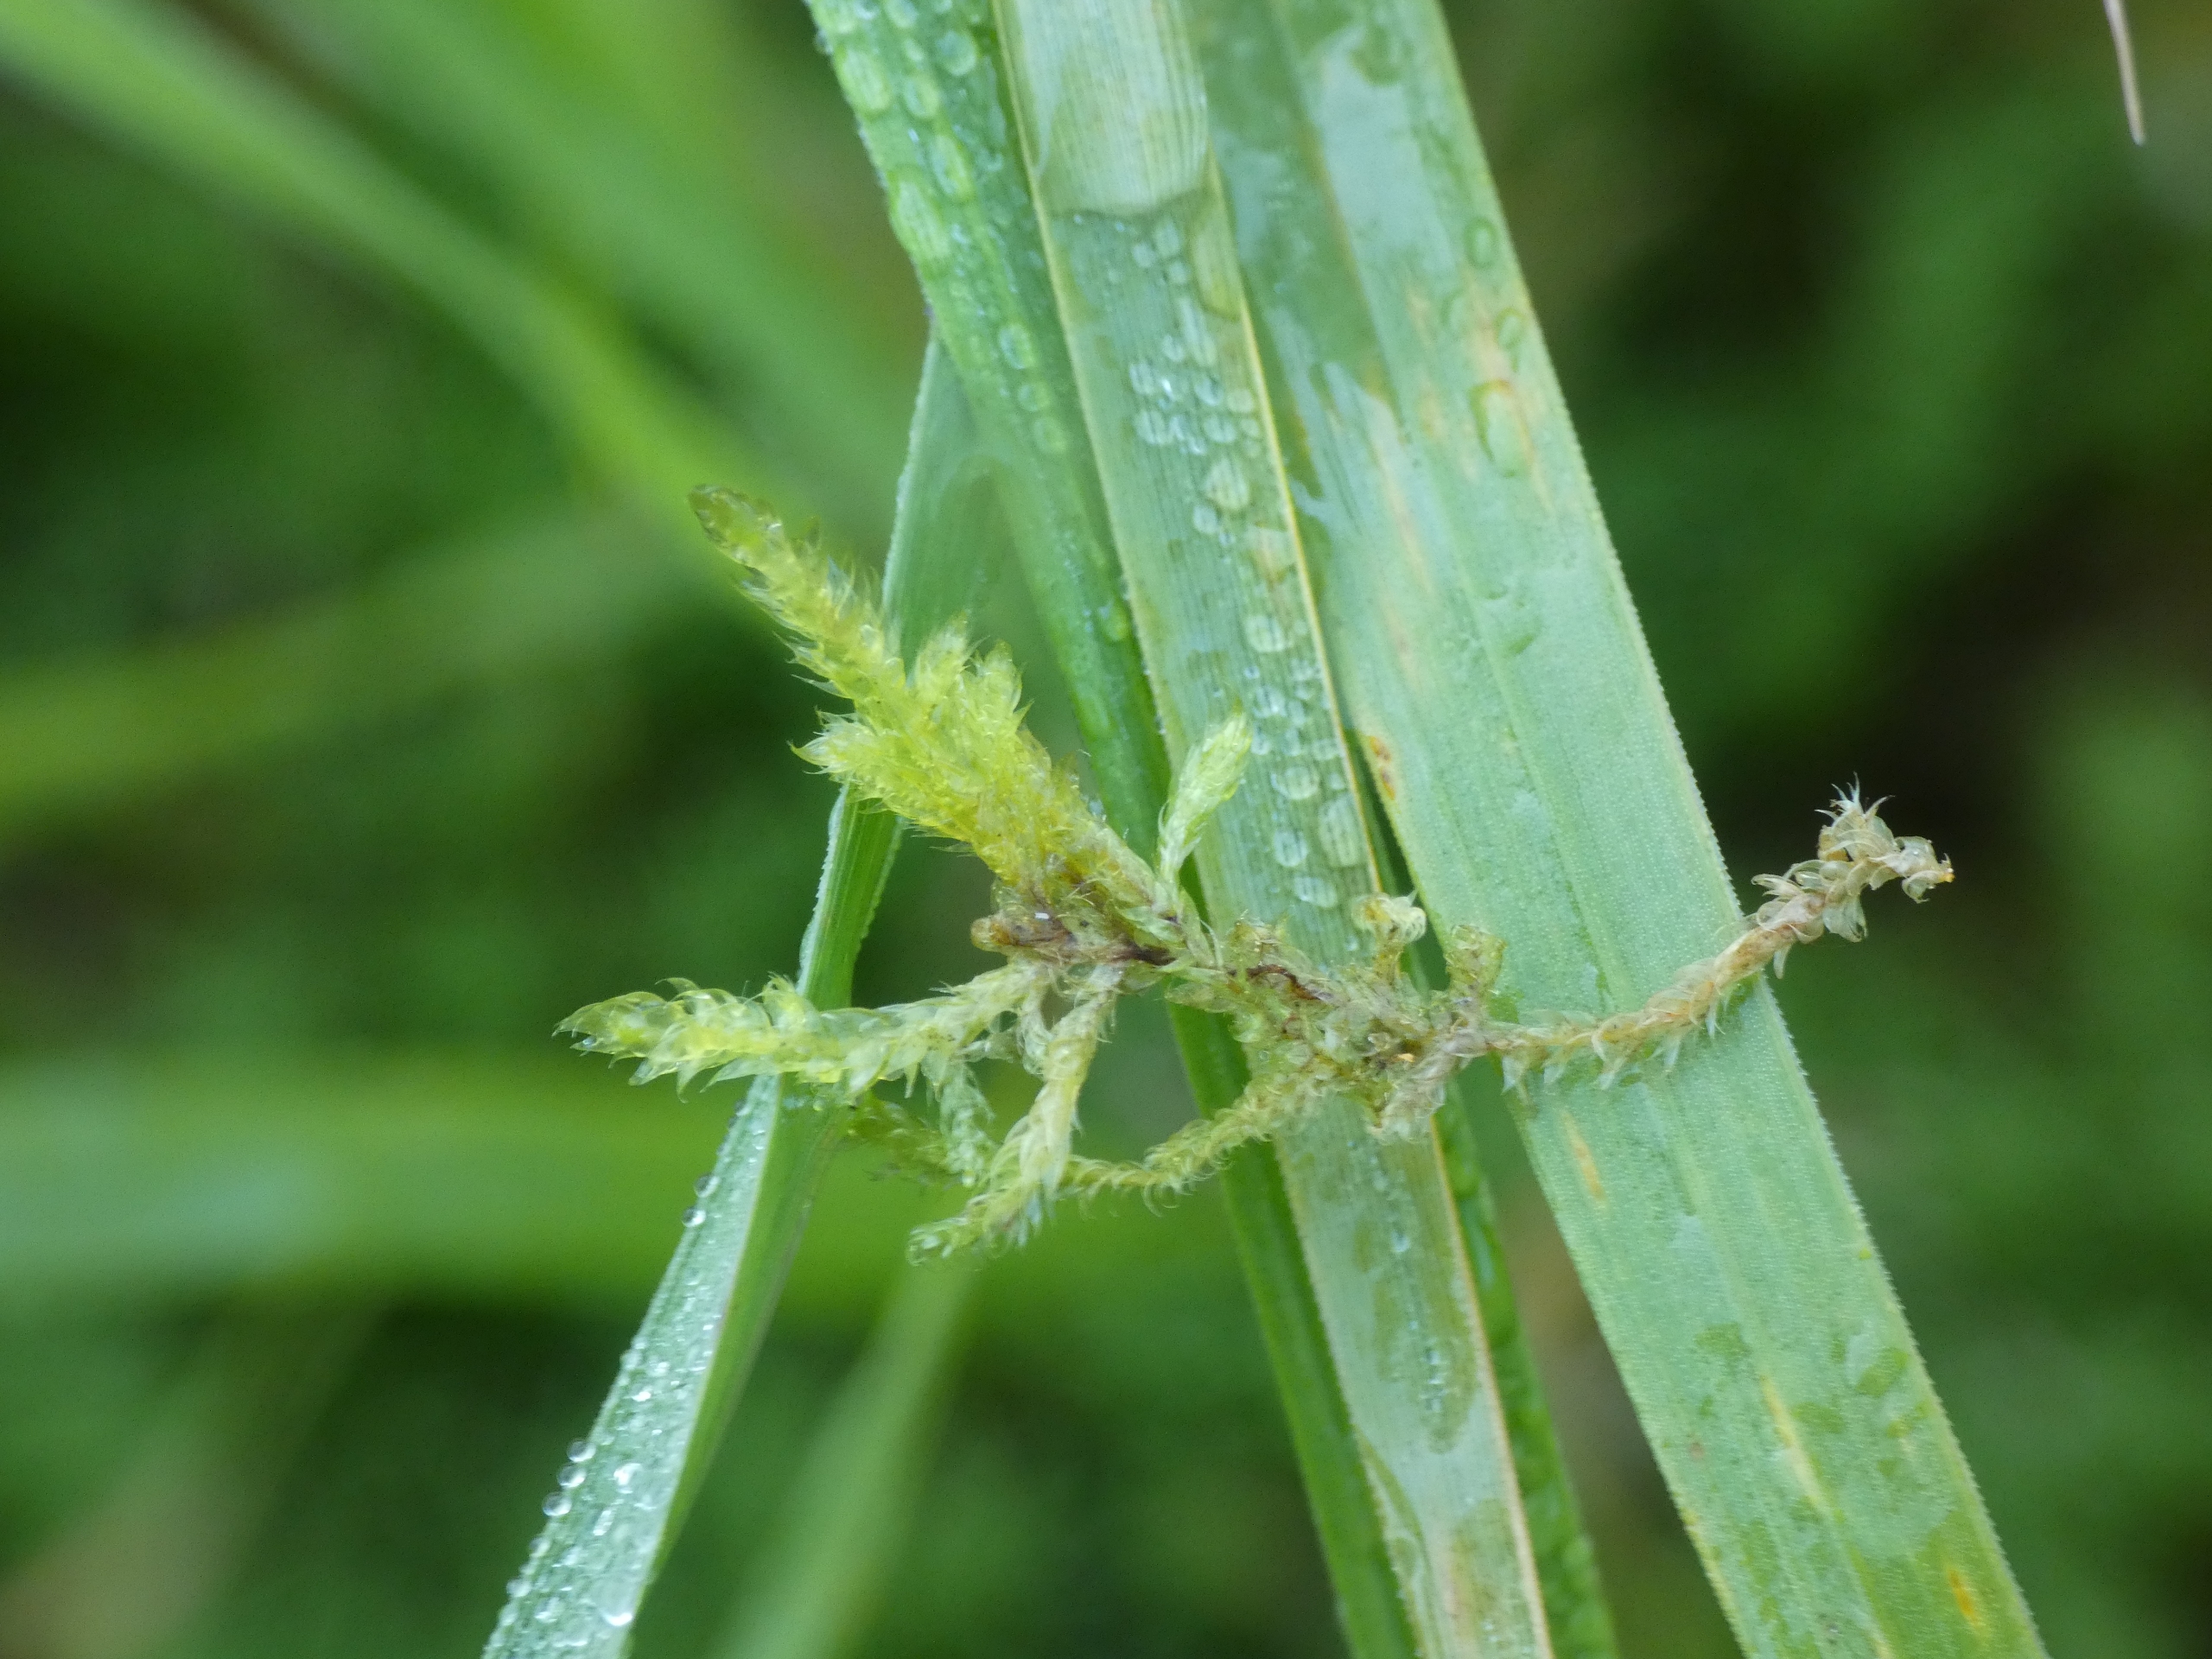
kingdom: Plantae
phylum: Bryophyta
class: Bryopsida
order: Hypnales
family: Hypnaceae
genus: Hypnum
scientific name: Hypnum cupressiforme
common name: Almindelig cypresmos
